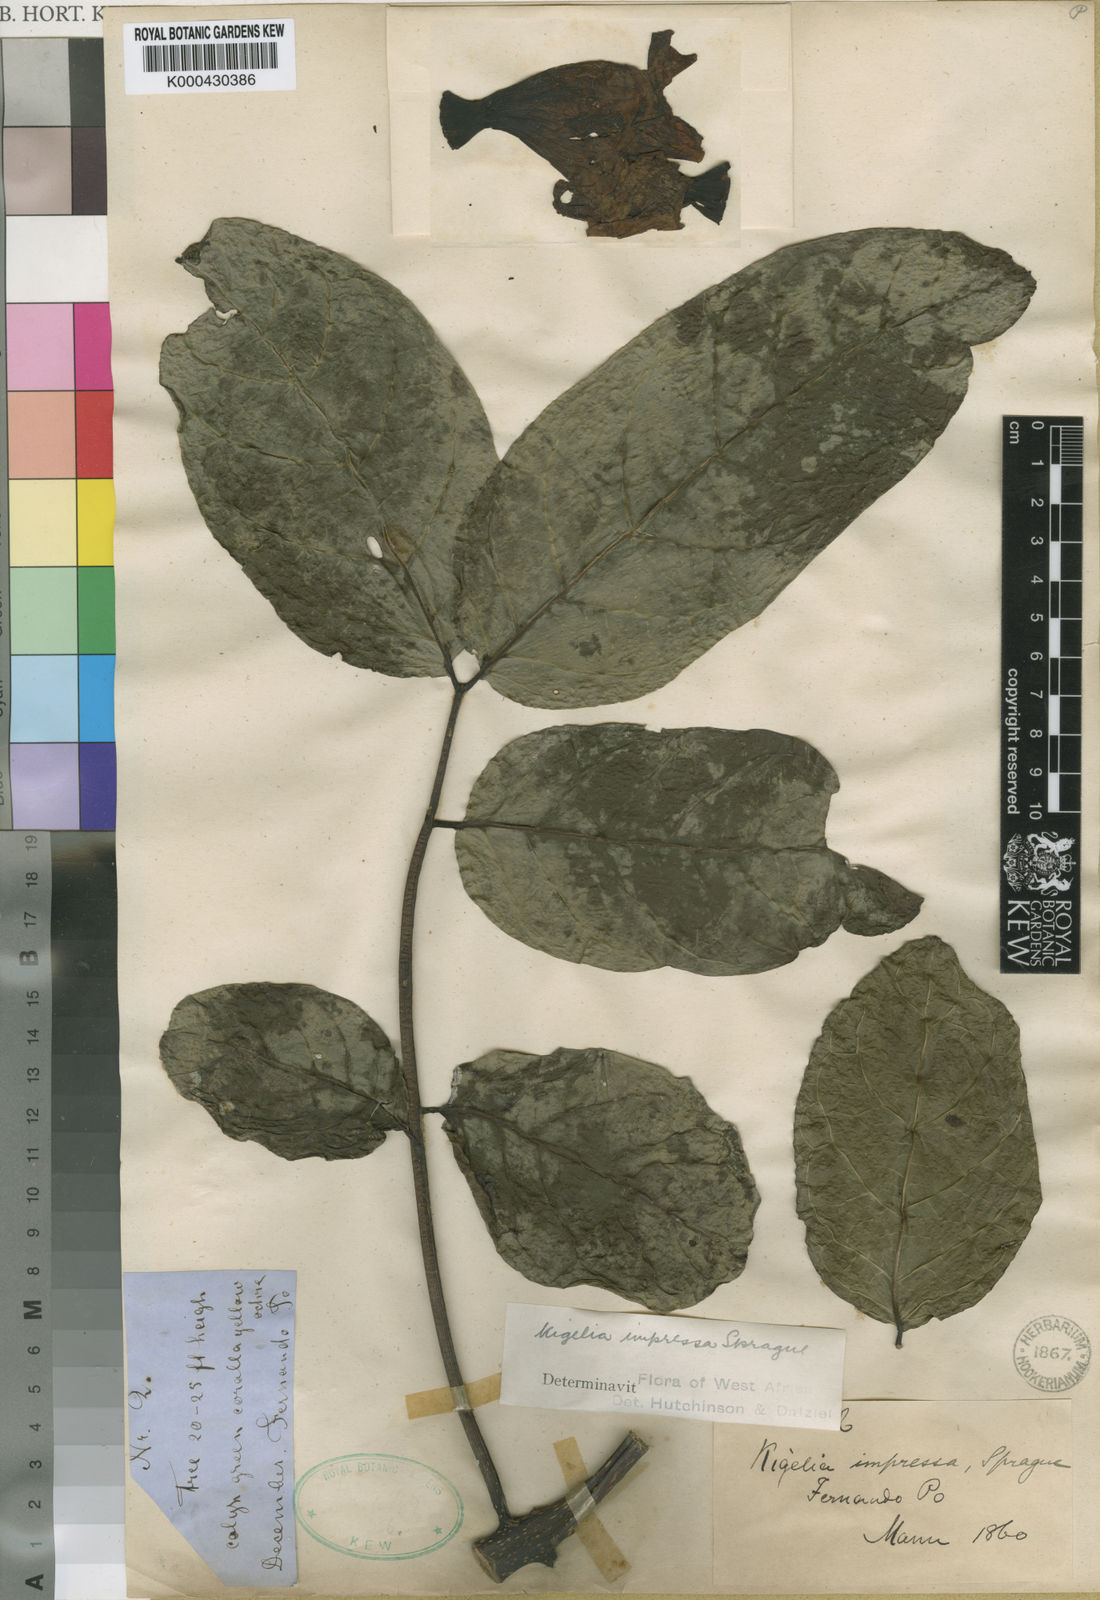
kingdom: Plantae
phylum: Tracheophyta
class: Magnoliopsida
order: Lamiales
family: Bignoniaceae
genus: Kigelia
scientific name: Kigelia africana
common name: Sausage tree
